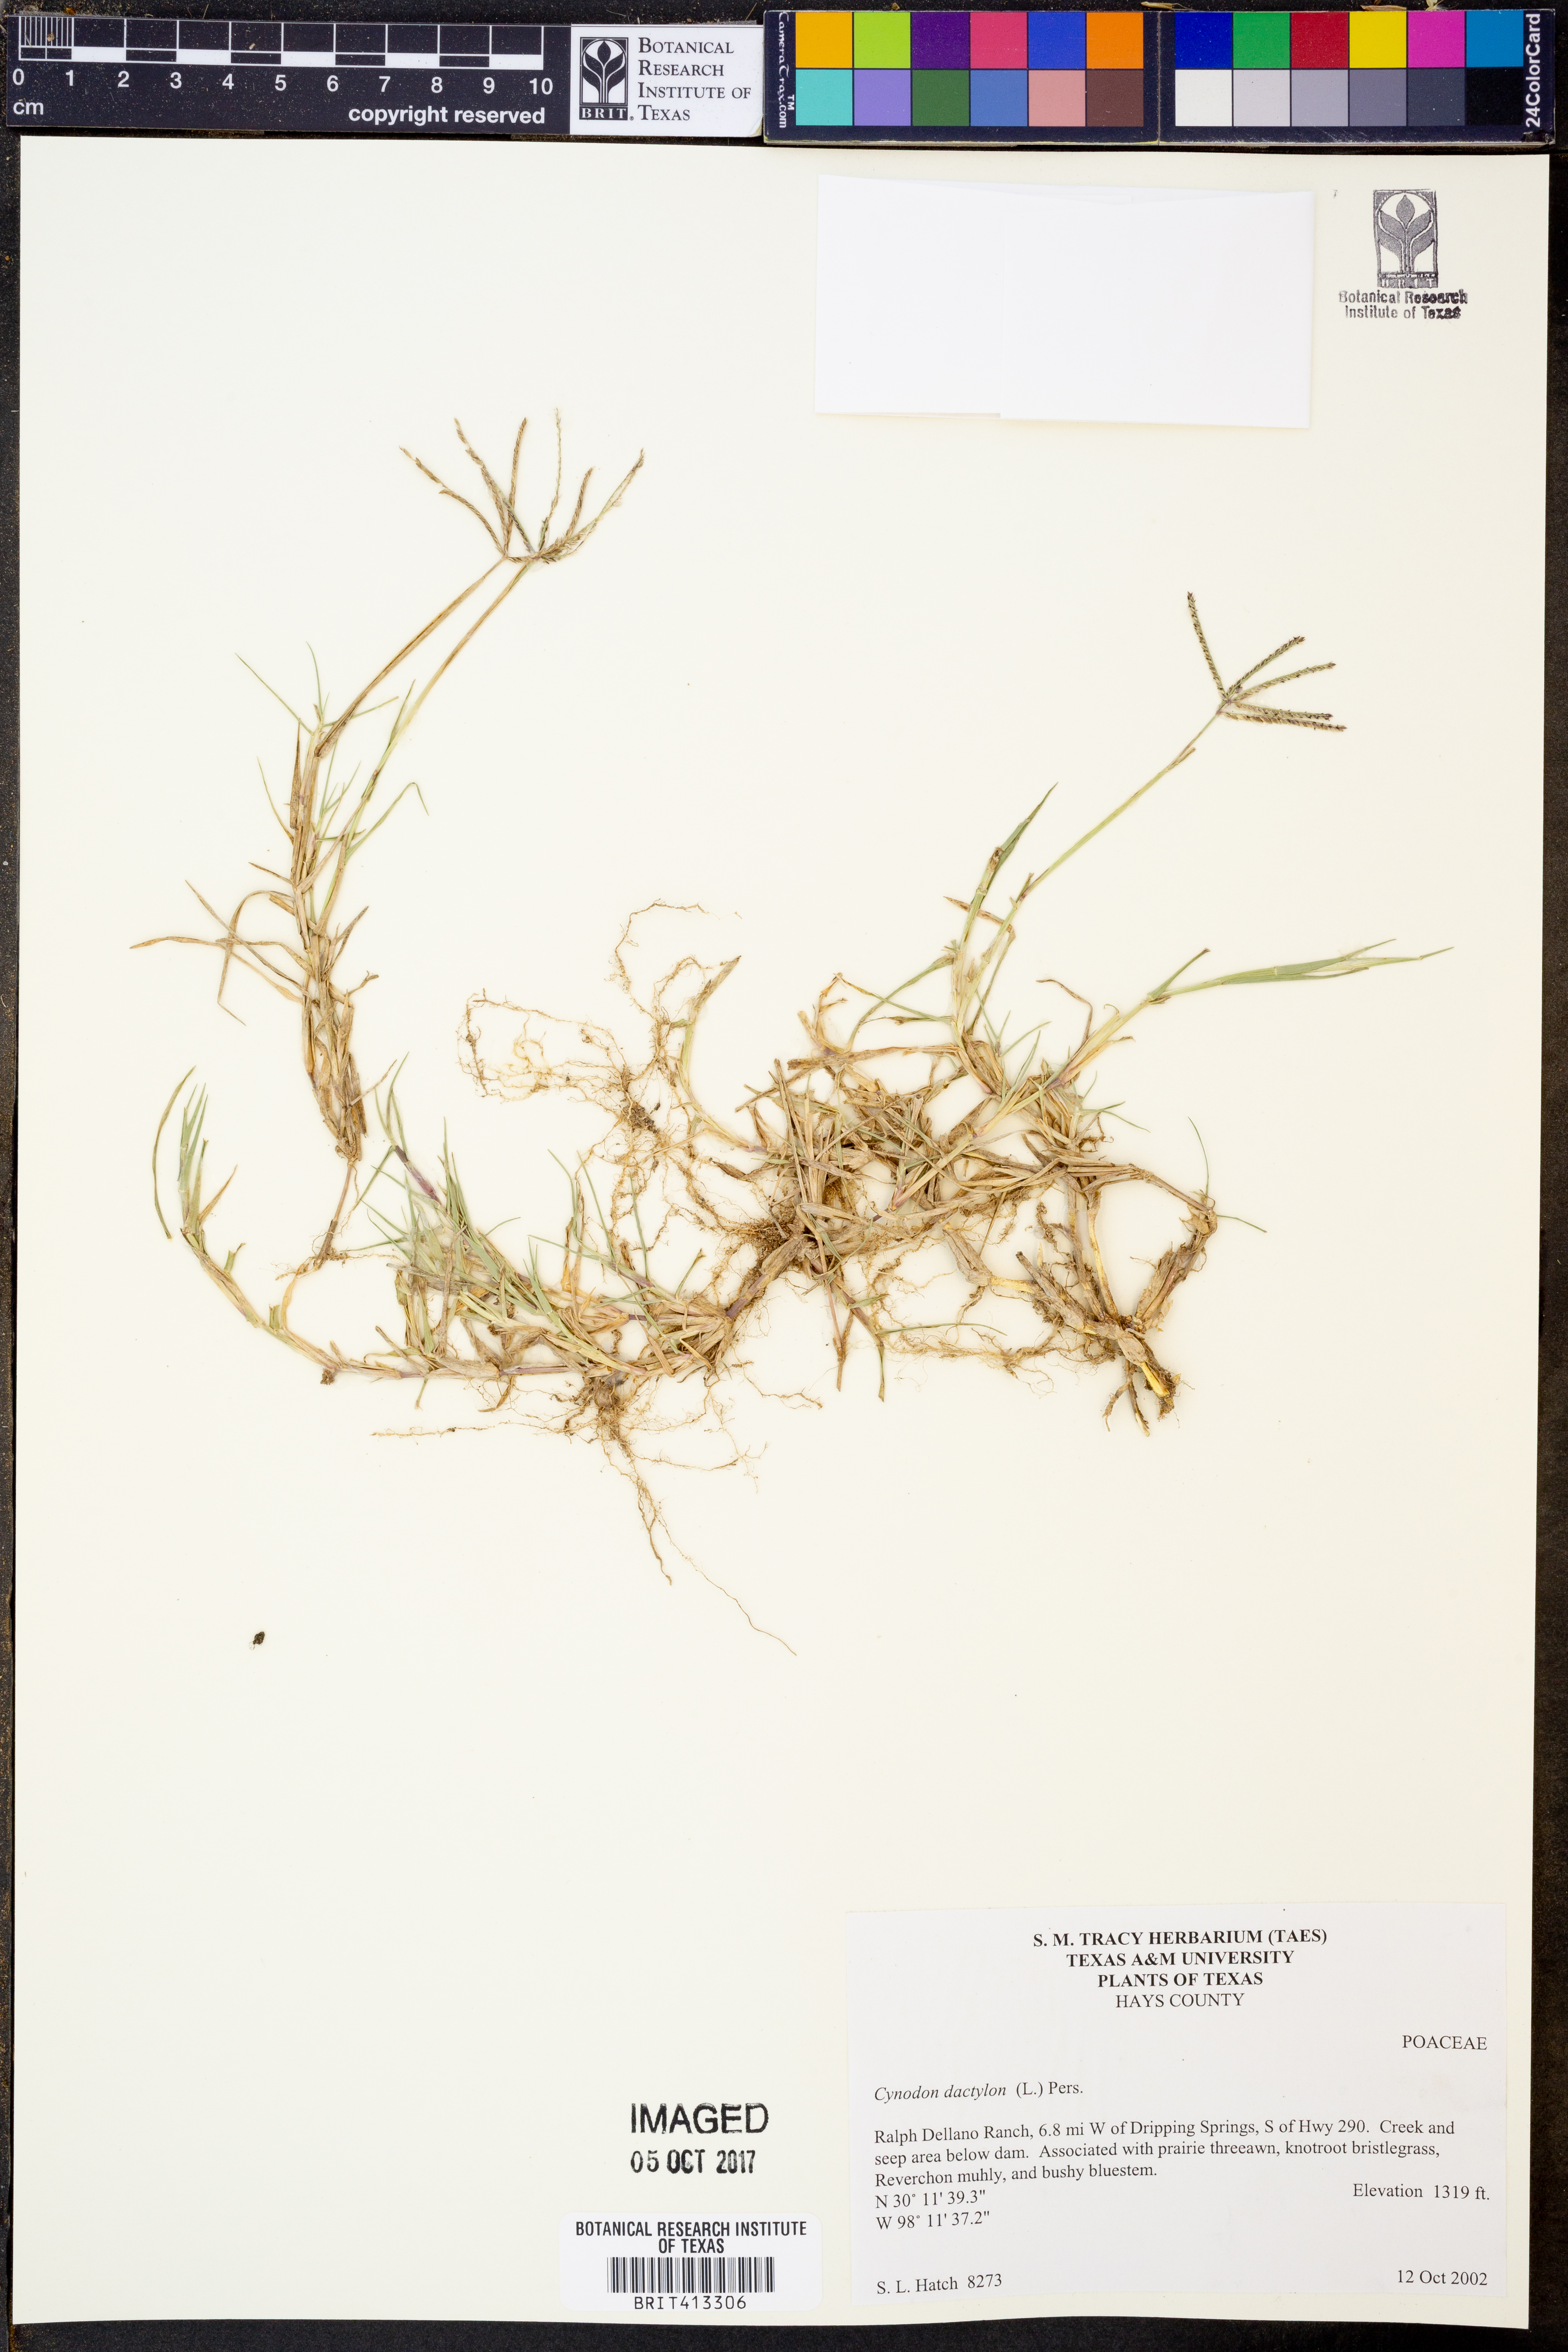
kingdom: Plantae
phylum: Tracheophyta
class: Liliopsida
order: Poales
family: Poaceae
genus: Cynodon
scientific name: Cynodon dactylon
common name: Bermuda grass
